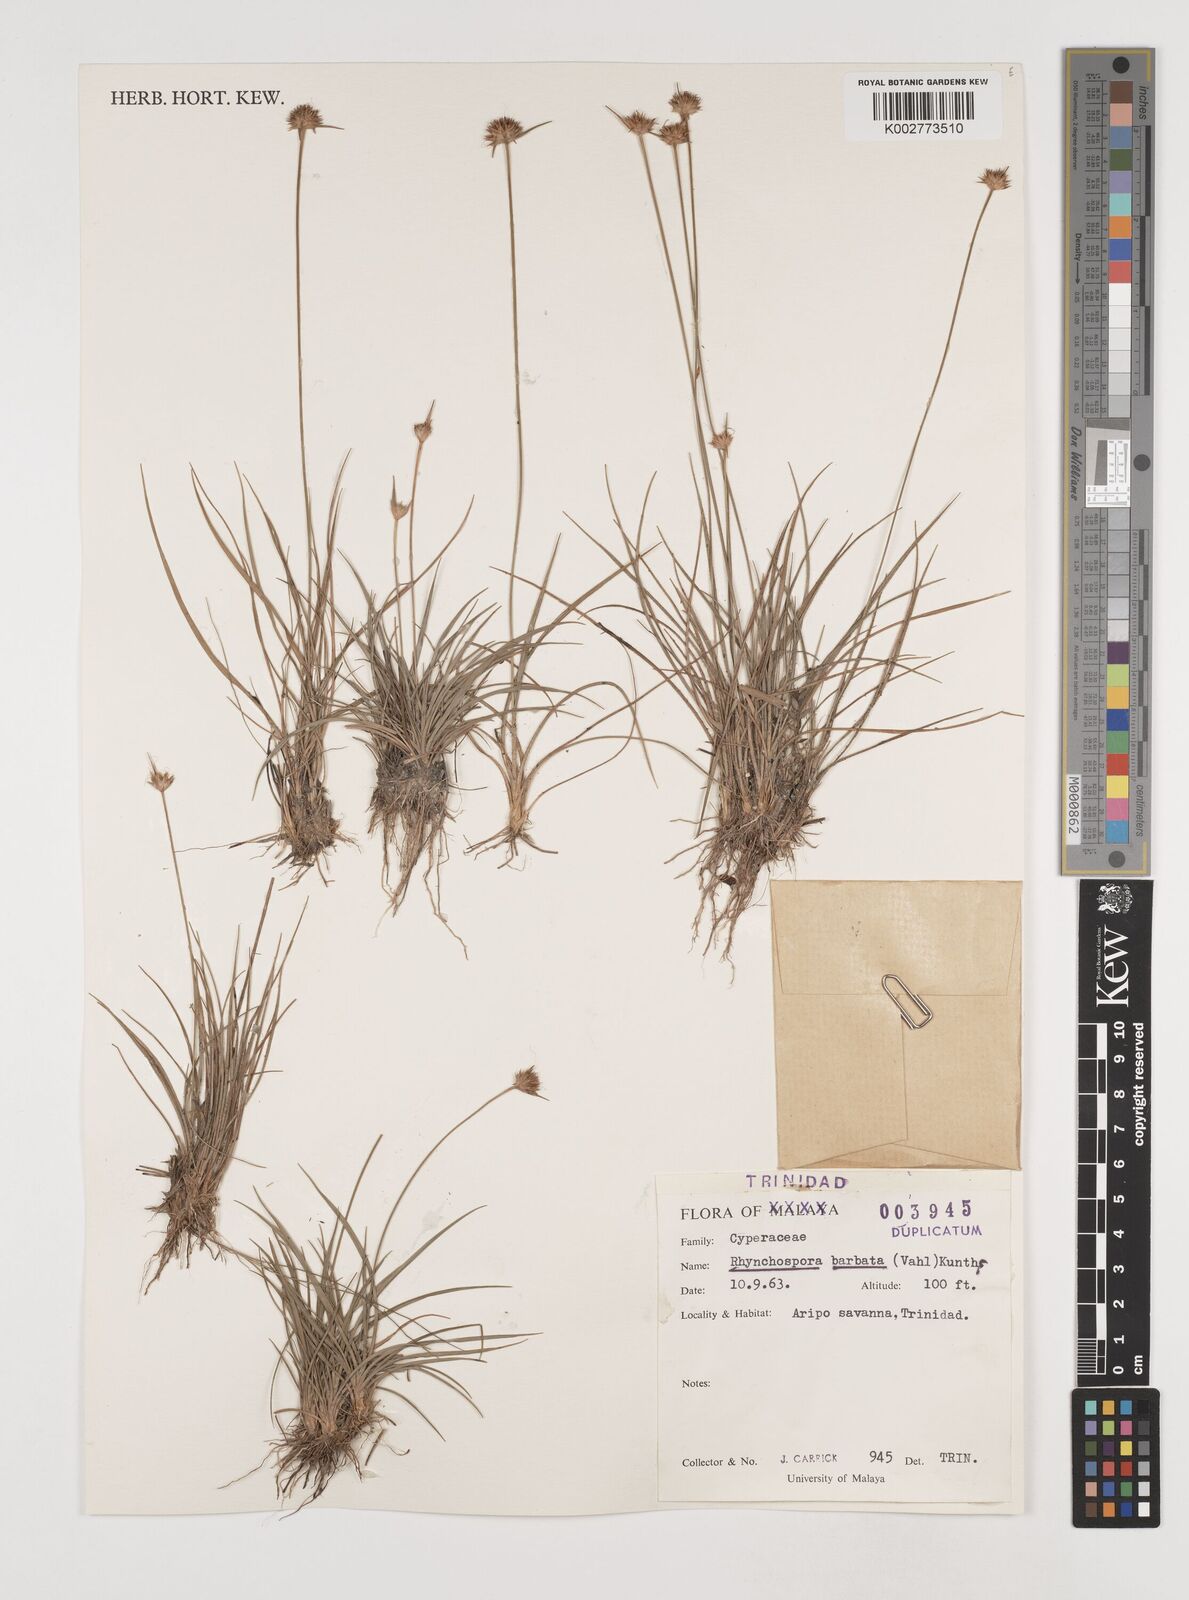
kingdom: Plantae
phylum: Tracheophyta
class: Liliopsida
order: Poales
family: Cyperaceae
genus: Rhynchospora
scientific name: Rhynchospora barbata
